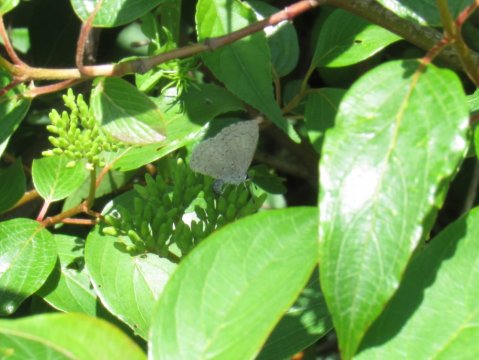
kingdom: Animalia
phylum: Arthropoda
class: Insecta
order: Lepidoptera
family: Lycaenidae
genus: Celastrina
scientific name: Celastrina
